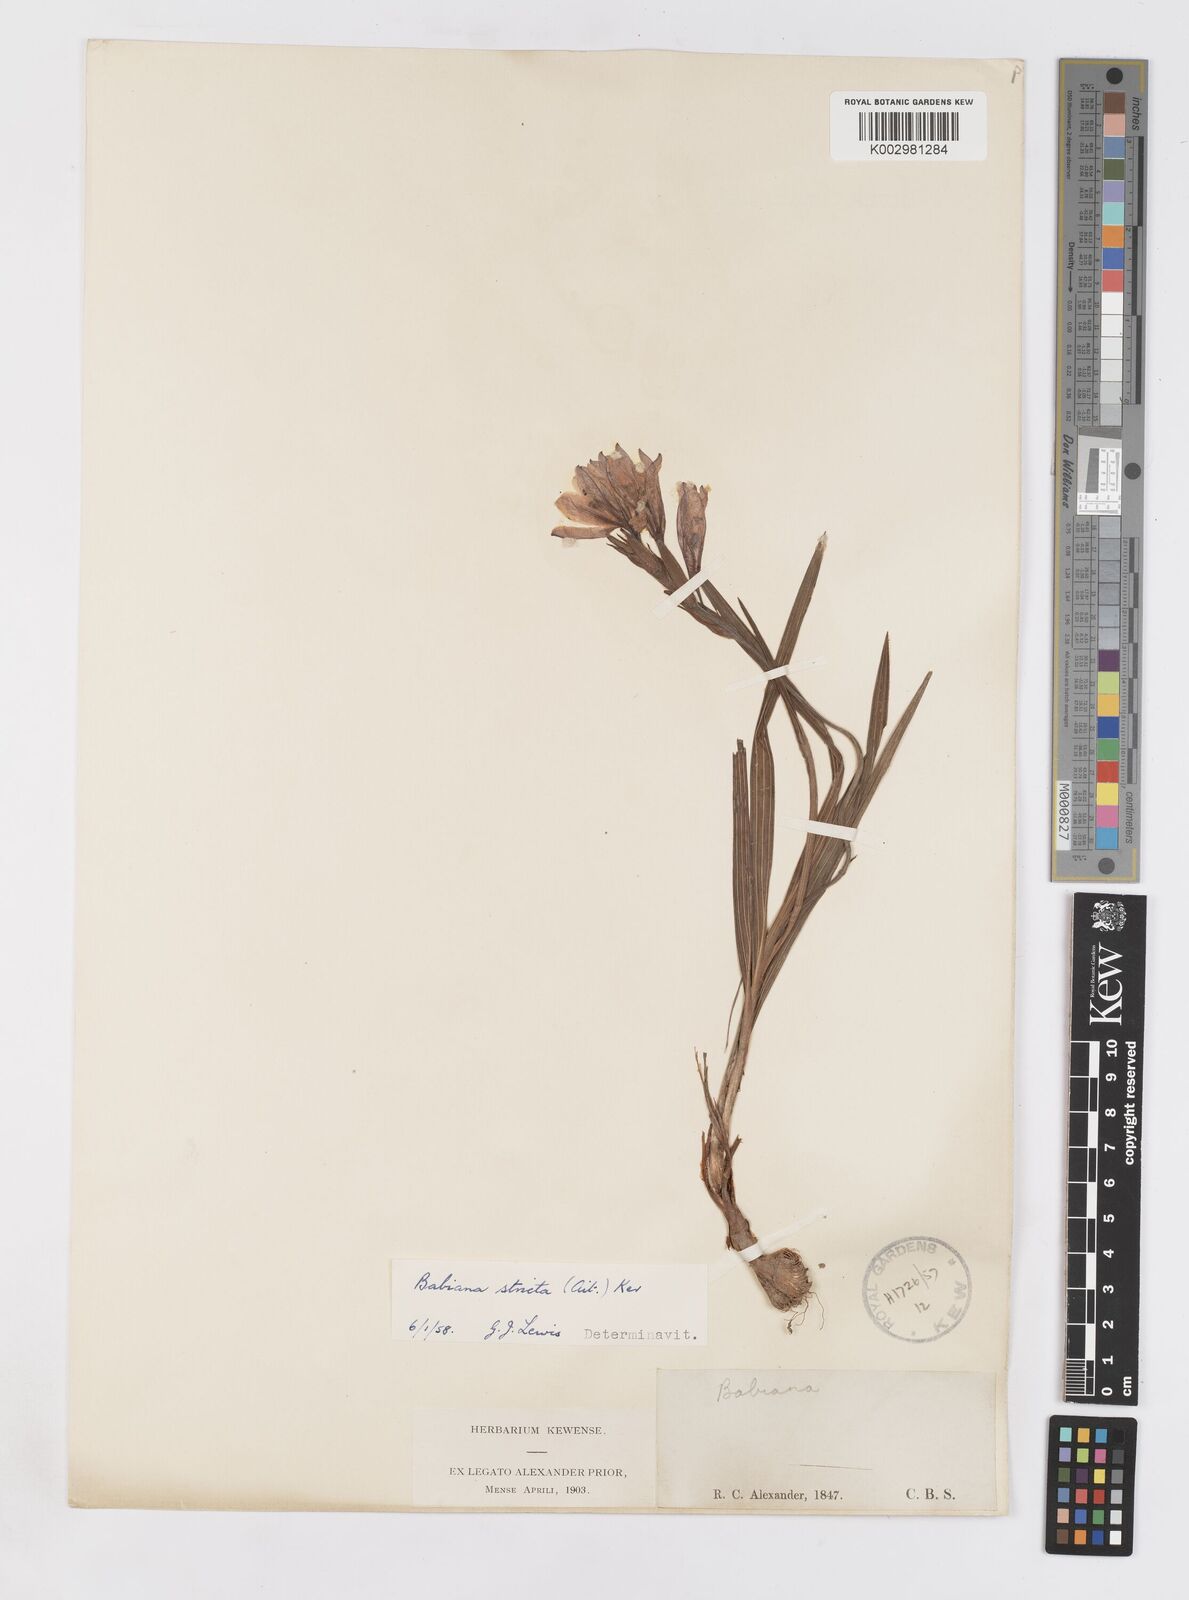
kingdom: Plantae
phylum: Tracheophyta
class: Liliopsida
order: Asparagales
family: Iridaceae
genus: Babiana
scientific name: Babiana nervosa
